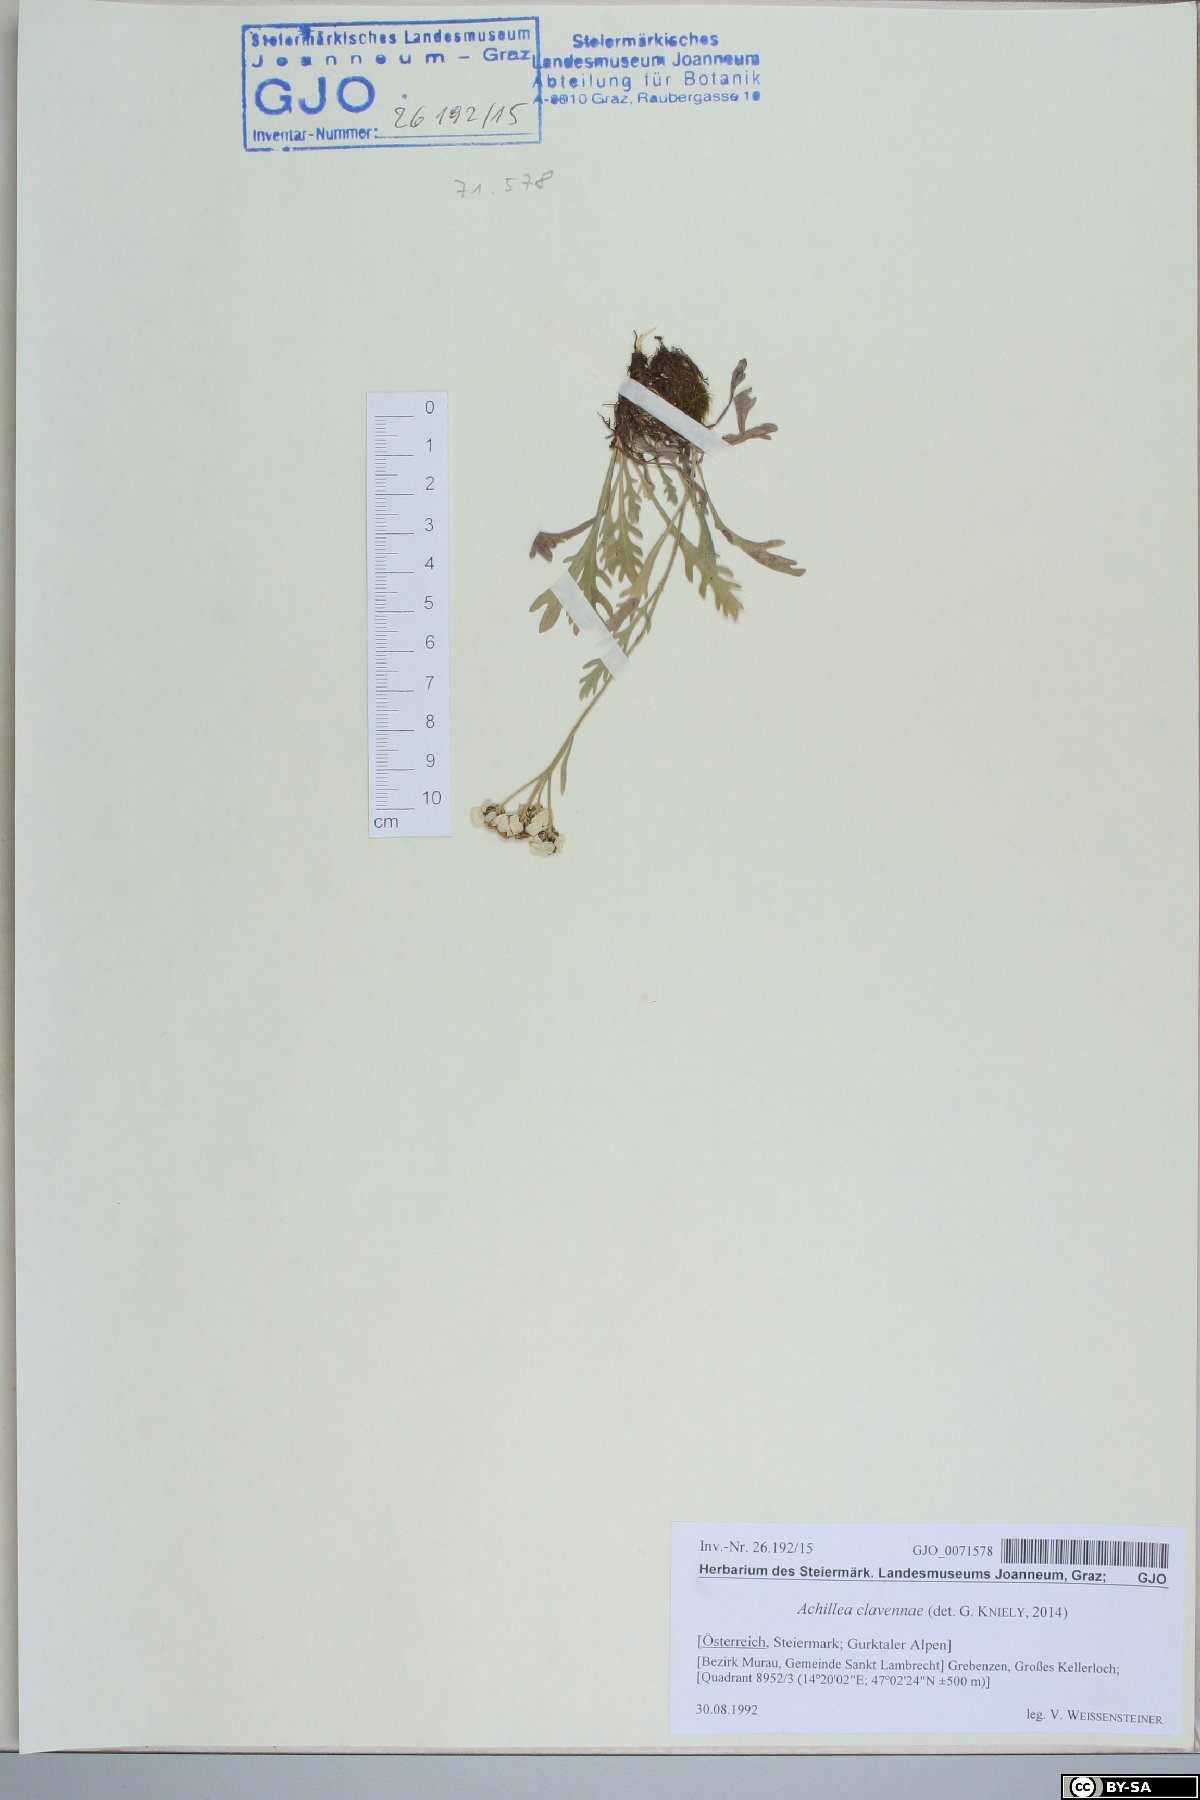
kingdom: Plantae
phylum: Tracheophyta
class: Magnoliopsida
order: Asterales
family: Asteraceae
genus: Achillea
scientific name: Achillea clavennae
